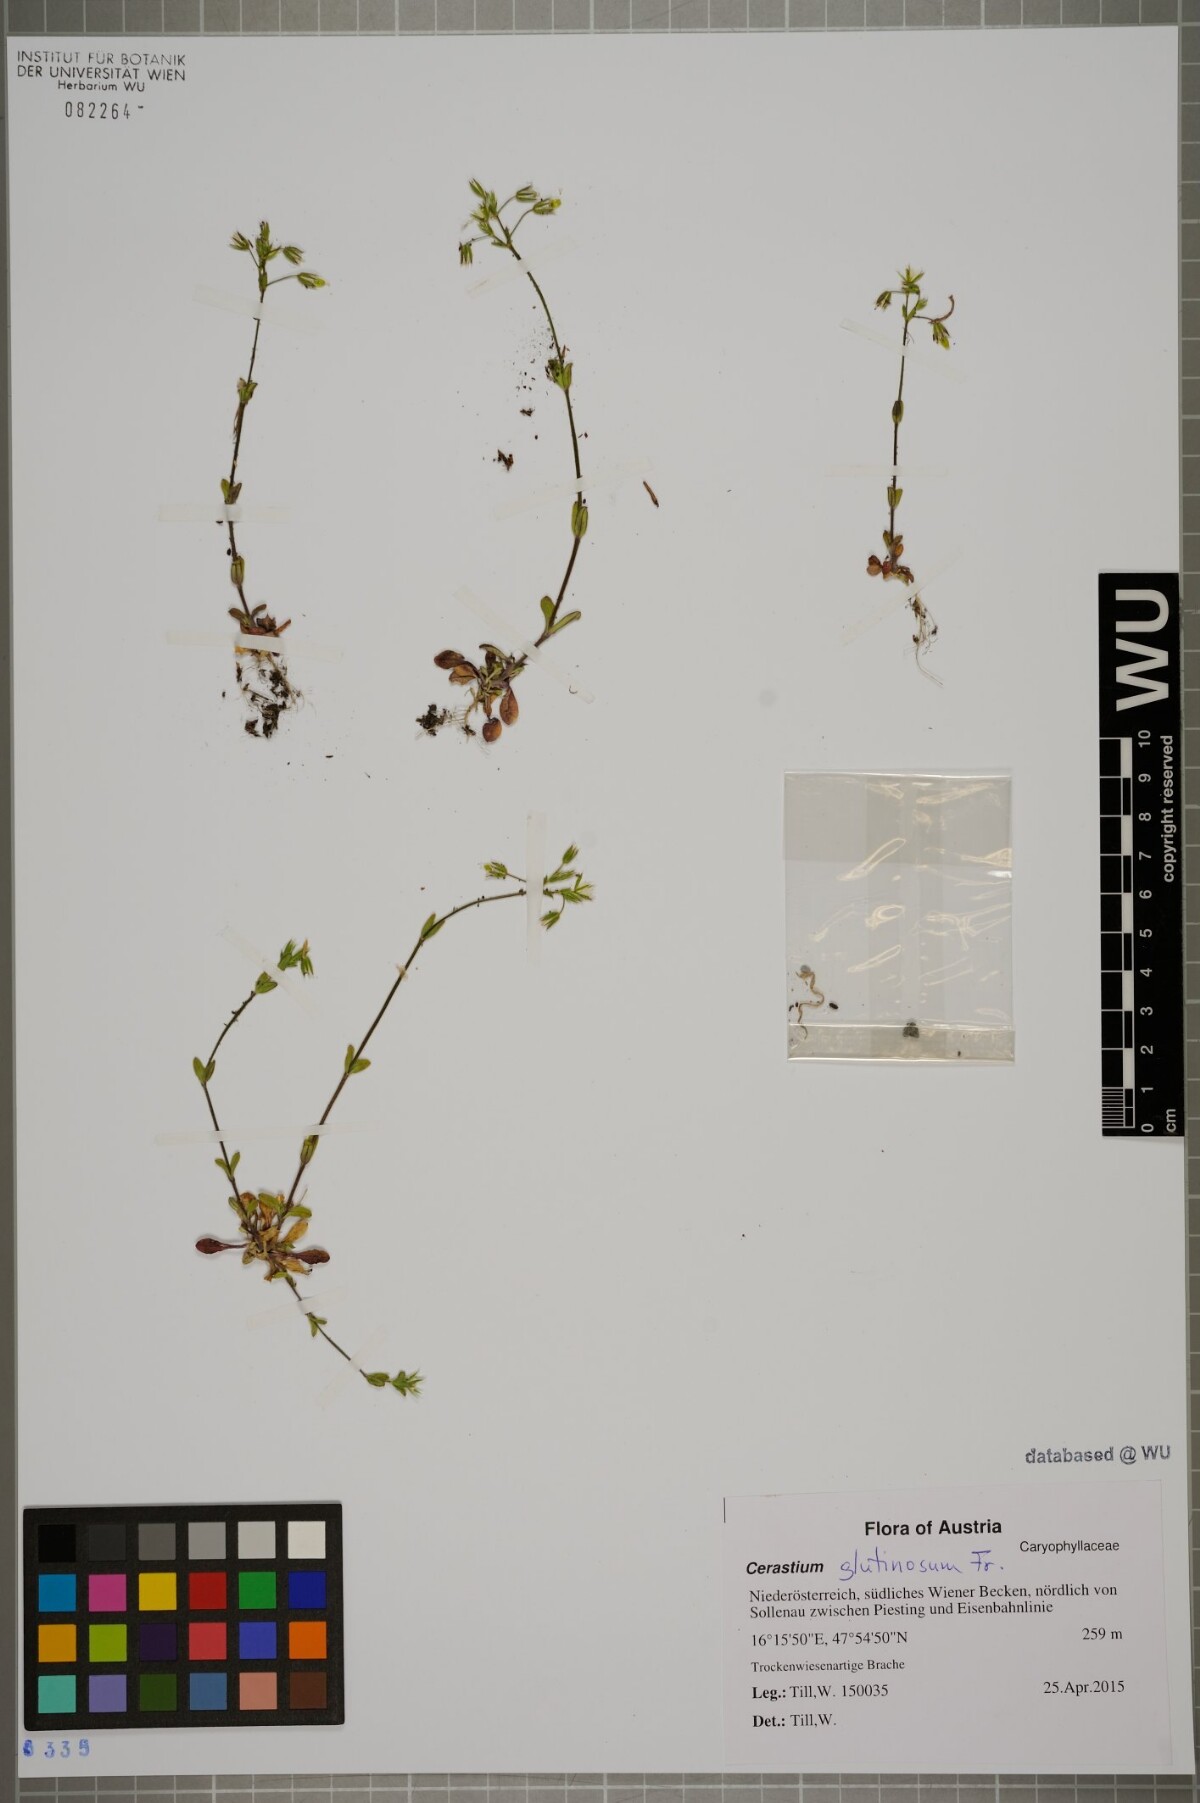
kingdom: Plantae
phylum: Tracheophyta
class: Magnoliopsida
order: Caryophyllales
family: Caryophyllaceae
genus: Cerastium
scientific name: Cerastium pumilum
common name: Dwarf mouse-ear
